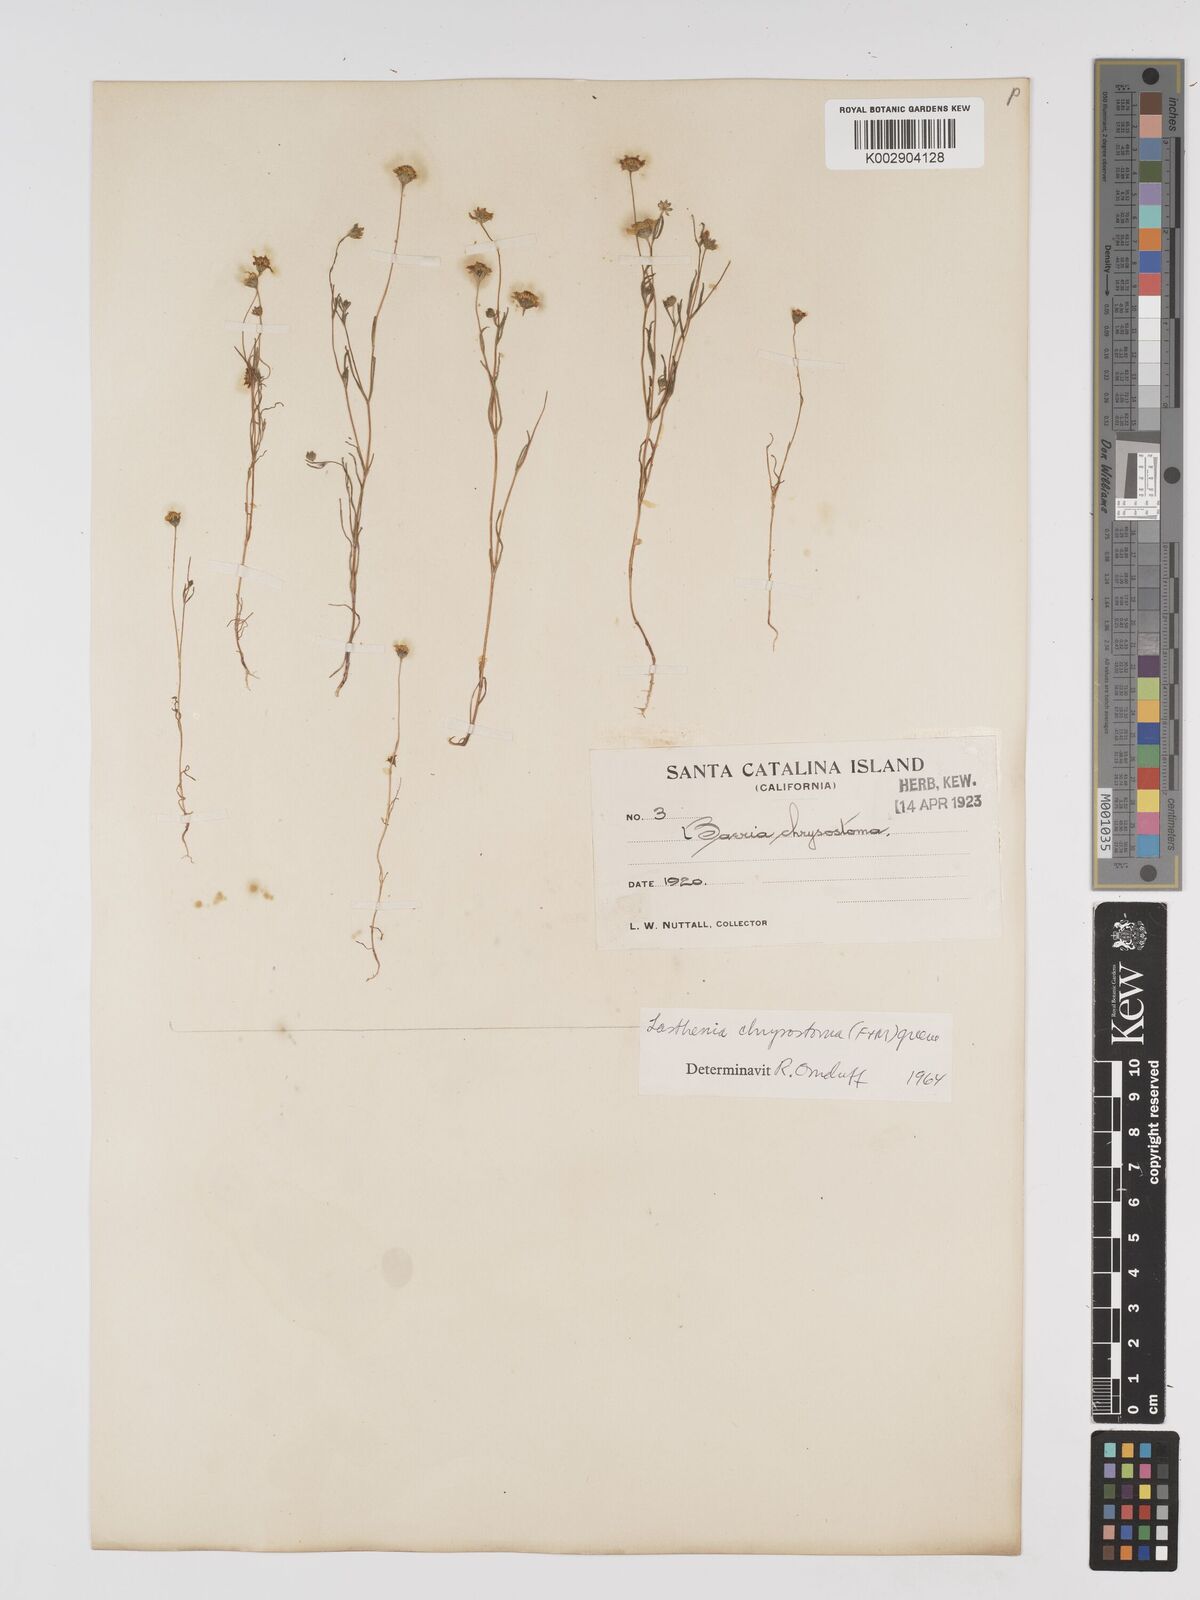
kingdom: Plantae
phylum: Tracheophyta
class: Magnoliopsida
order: Asterales
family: Asteraceae
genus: Lasthenia
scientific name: Lasthenia californica
